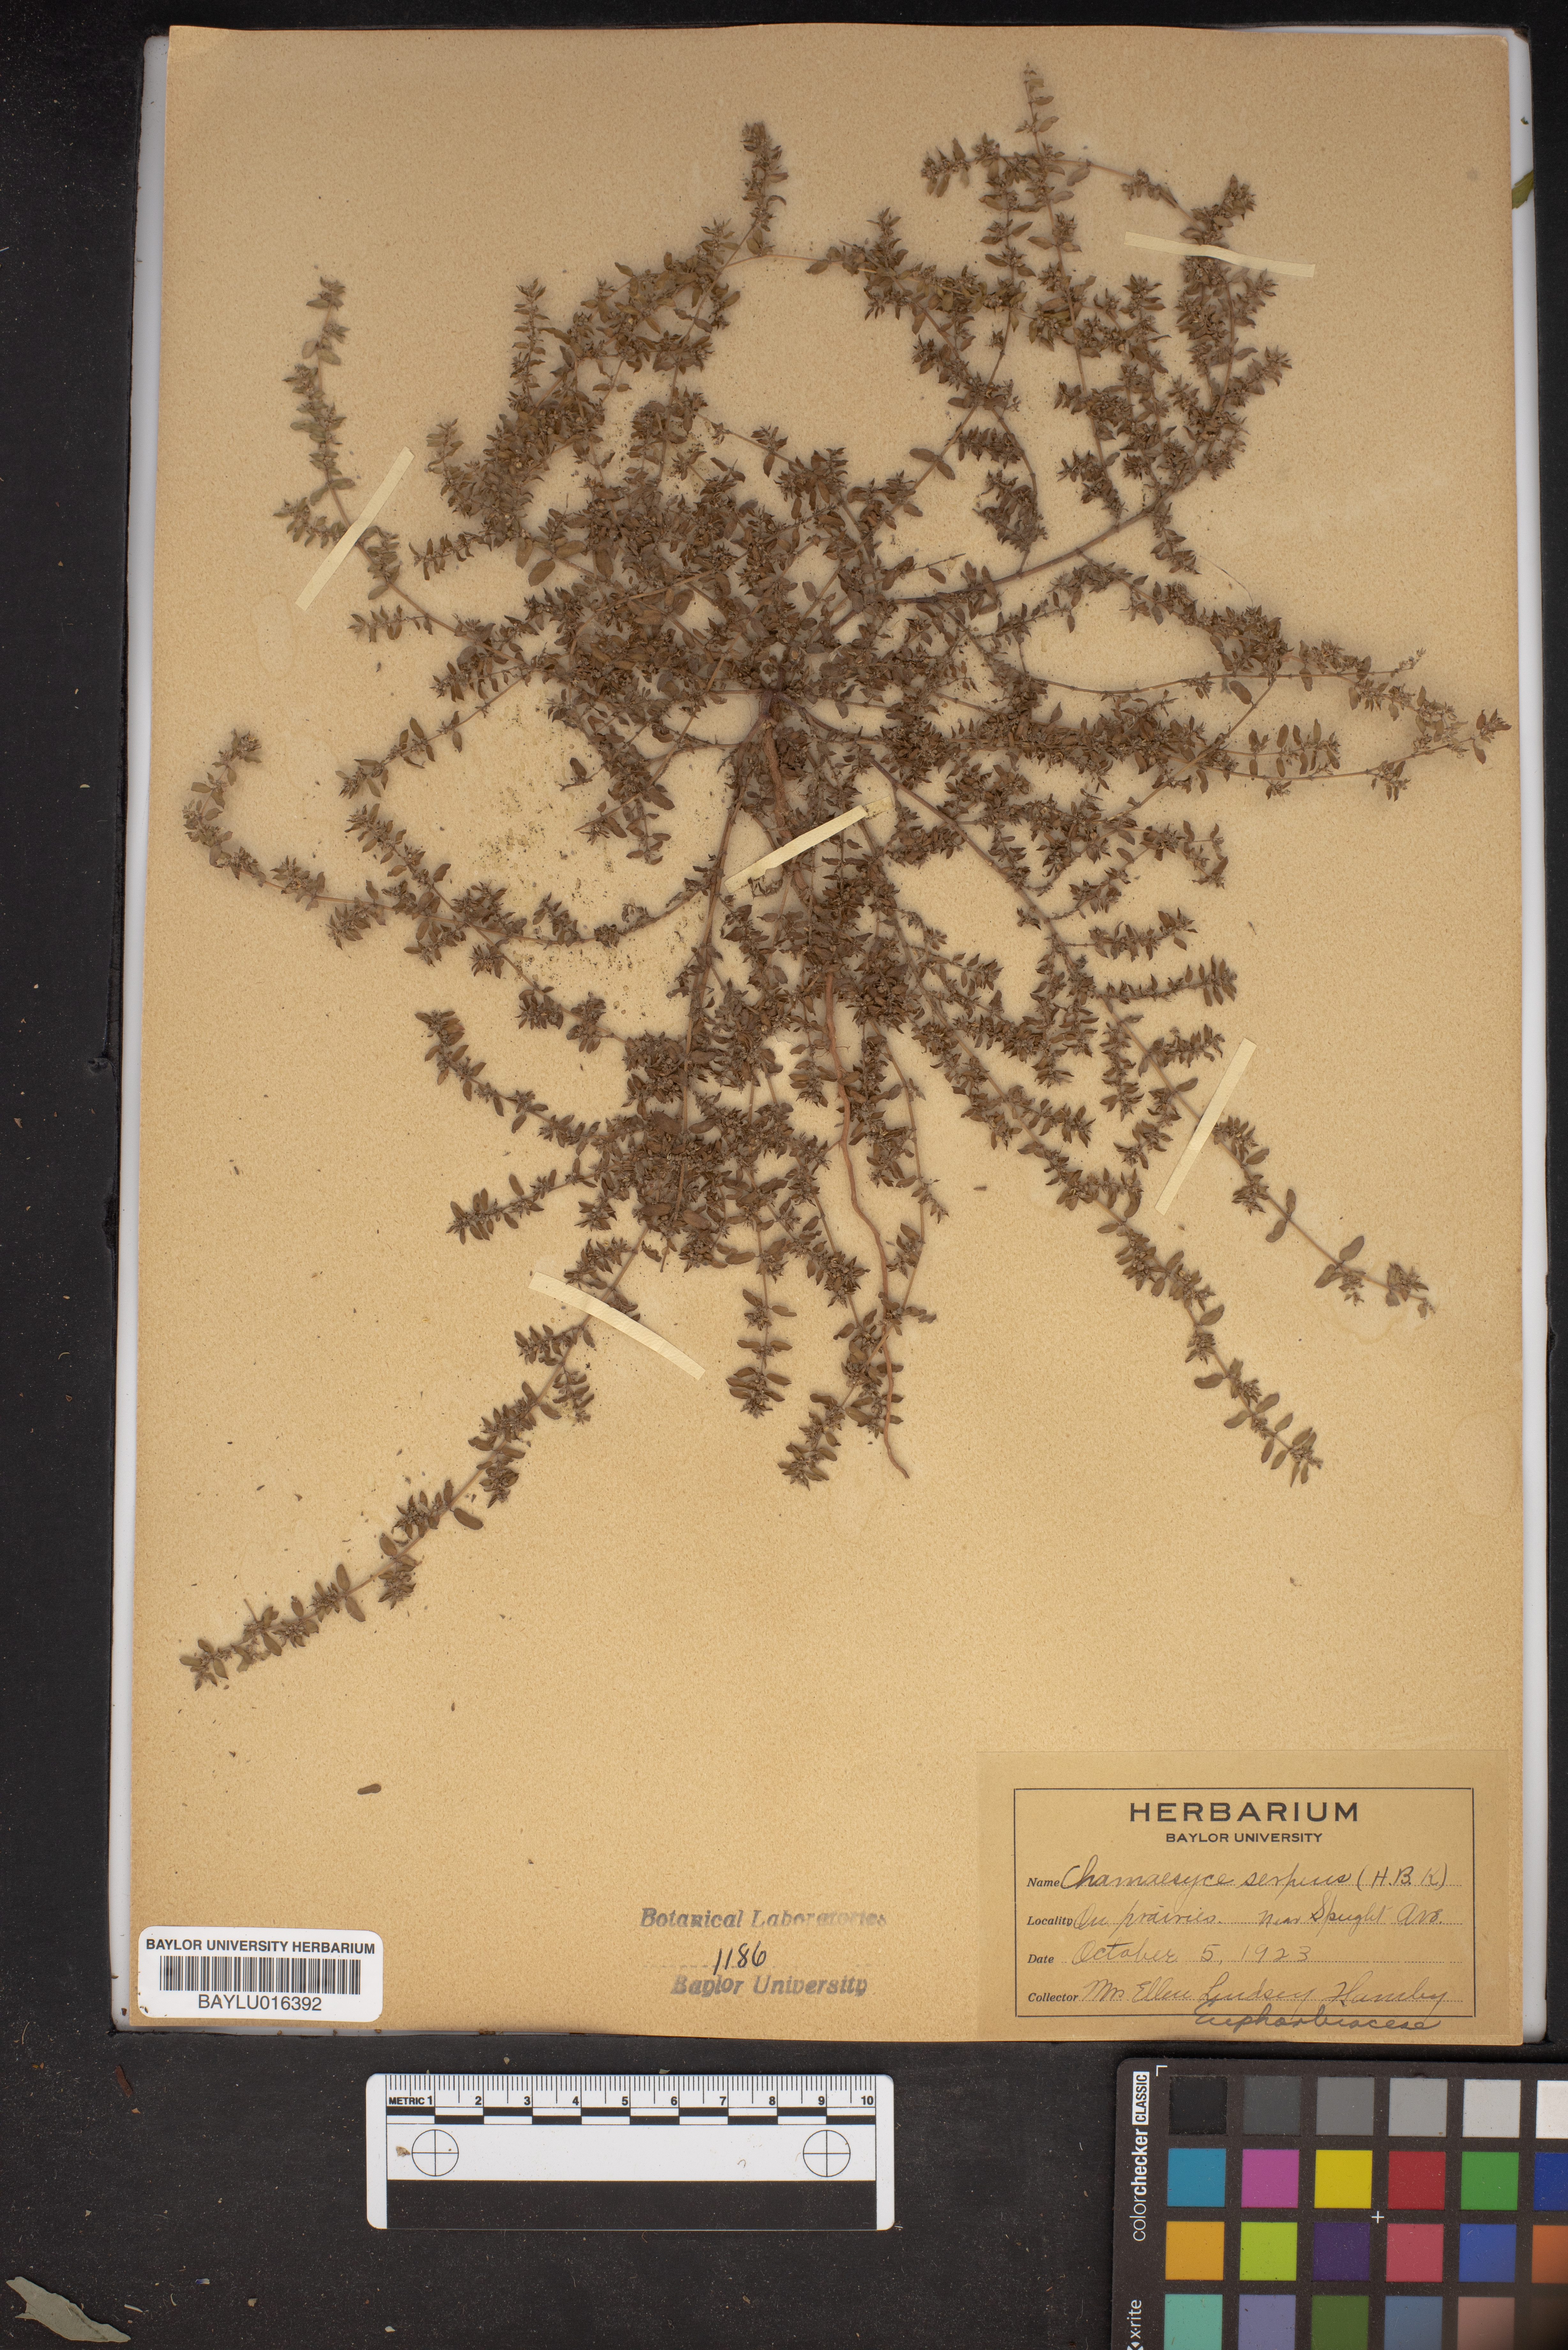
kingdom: Plantae
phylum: Tracheophyta
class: Magnoliopsida
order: Malpighiales
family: Euphorbiaceae
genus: Euphorbia
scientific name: Euphorbia serpens
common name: Matted sandmat
